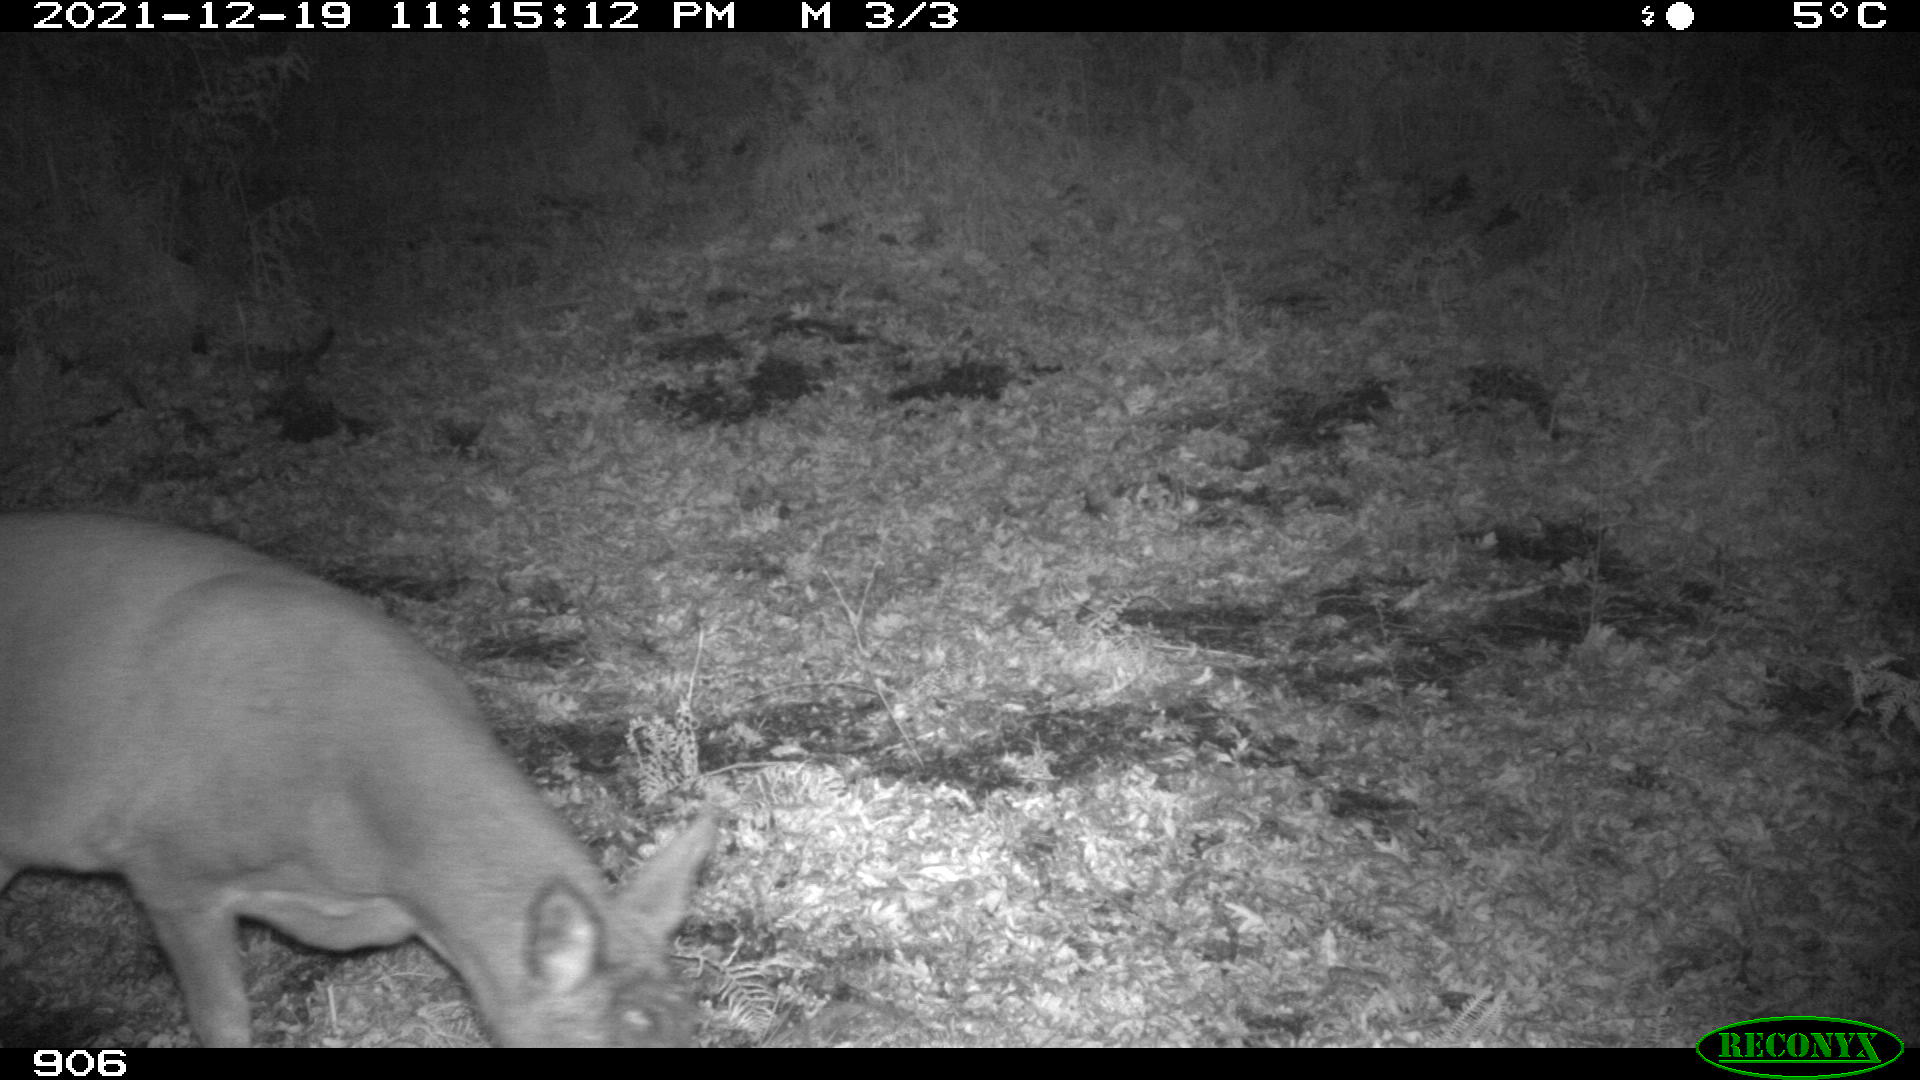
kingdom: Animalia
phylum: Chordata
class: Mammalia
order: Artiodactyla
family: Cervidae
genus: Capreolus
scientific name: Capreolus capreolus
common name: Western roe deer
